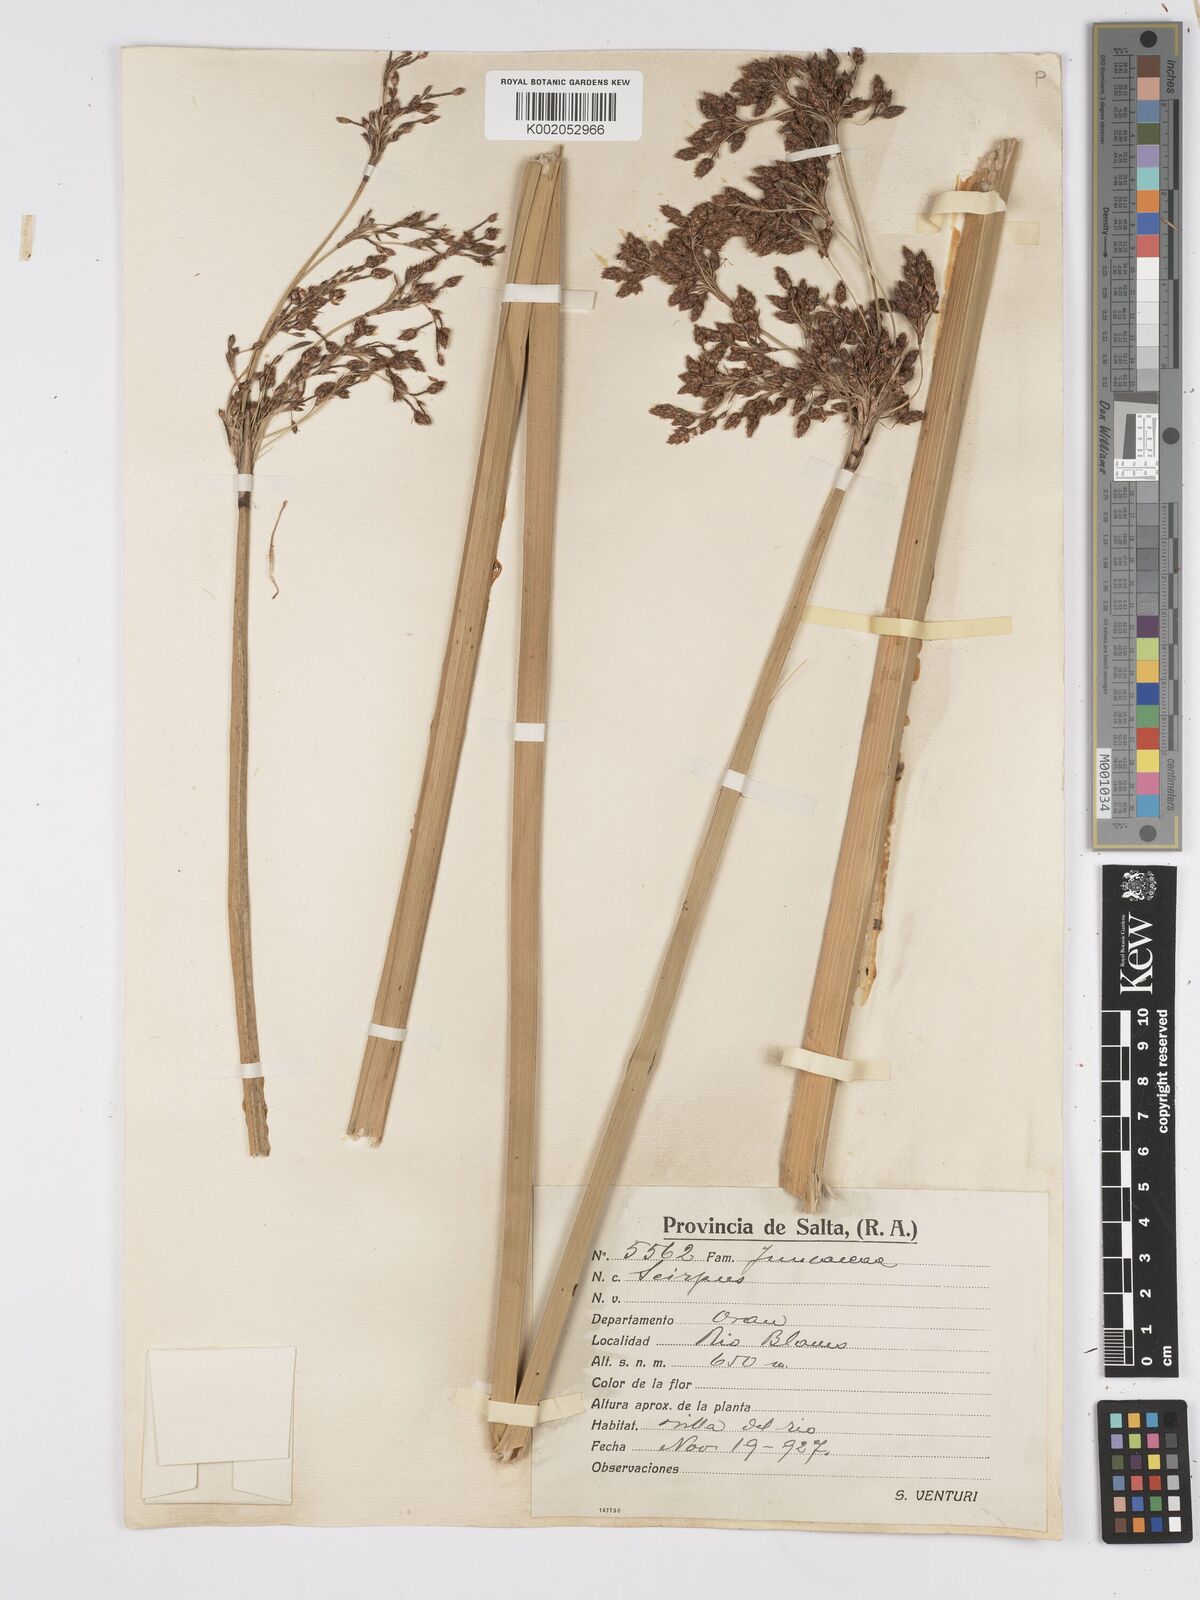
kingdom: Plantae
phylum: Tracheophyta
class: Liliopsida
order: Poales
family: Cyperaceae
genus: Scirpus
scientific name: Scirpus
